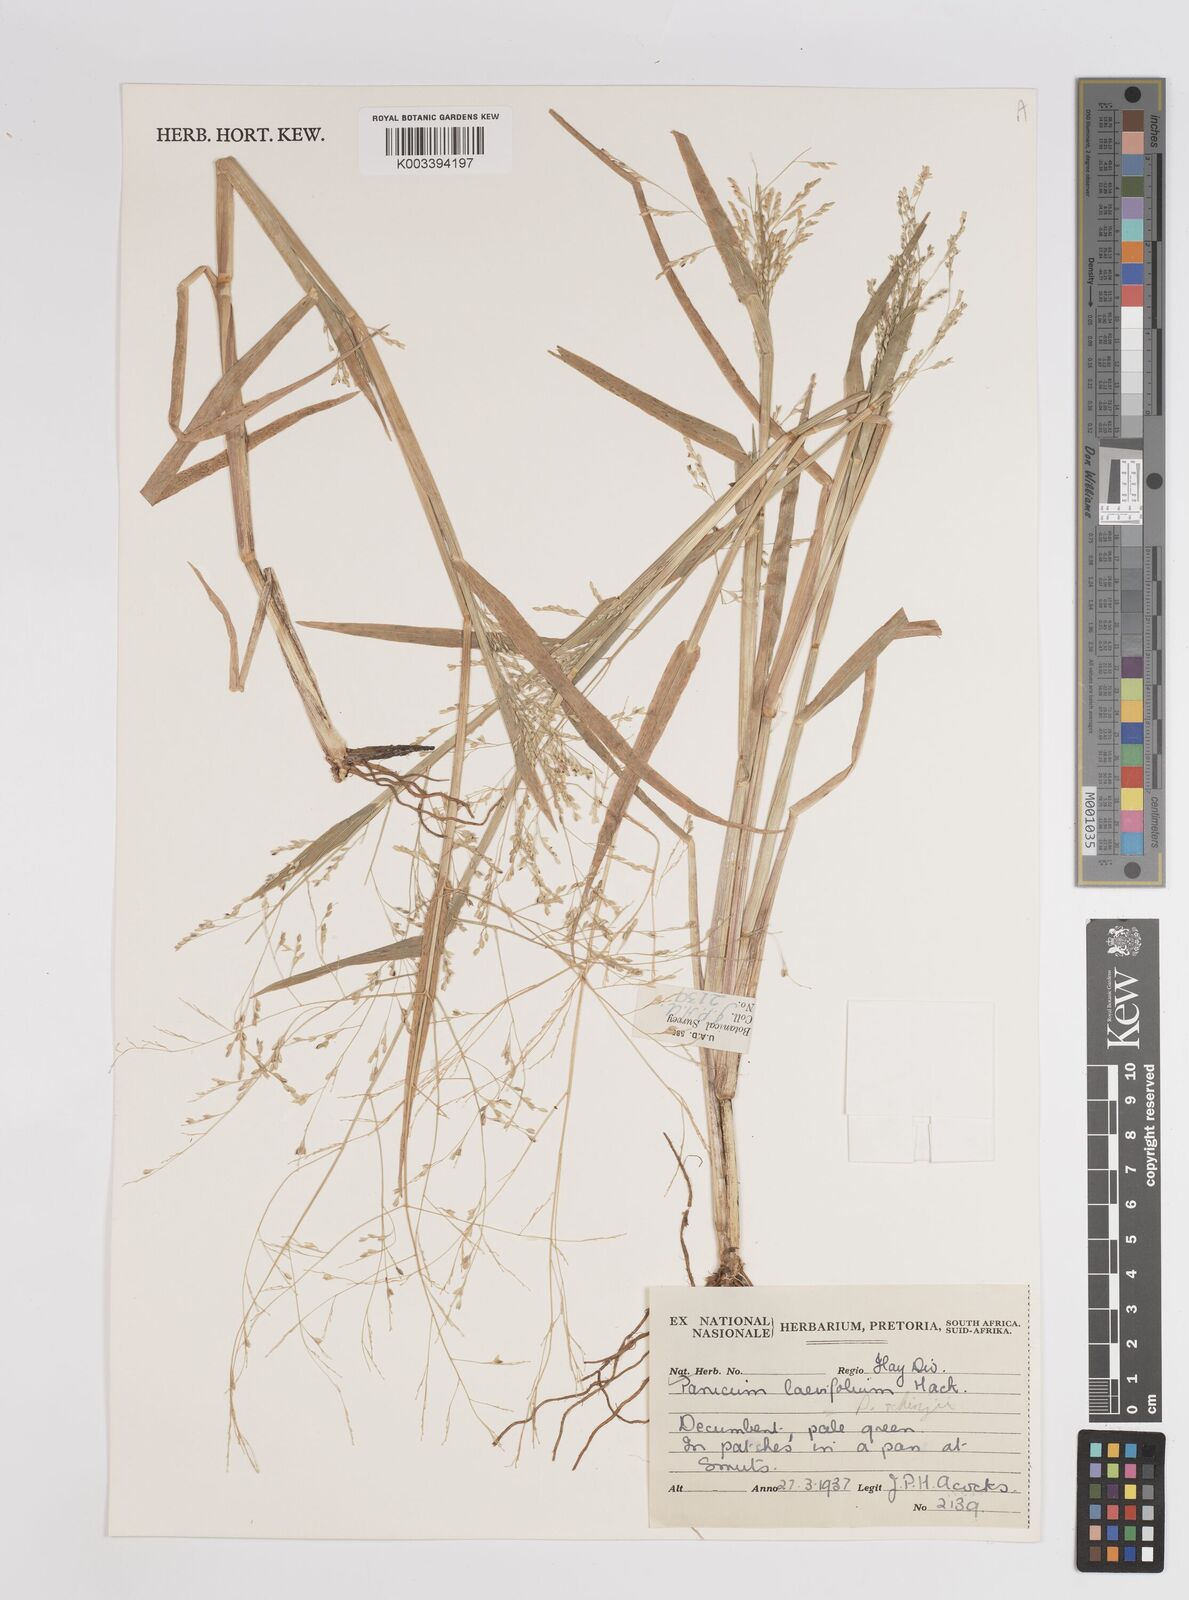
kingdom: Plantae
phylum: Tracheophyta
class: Liliopsida
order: Poales
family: Poaceae
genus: Panicum
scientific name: Panicum schinzii
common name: Sweet grass
